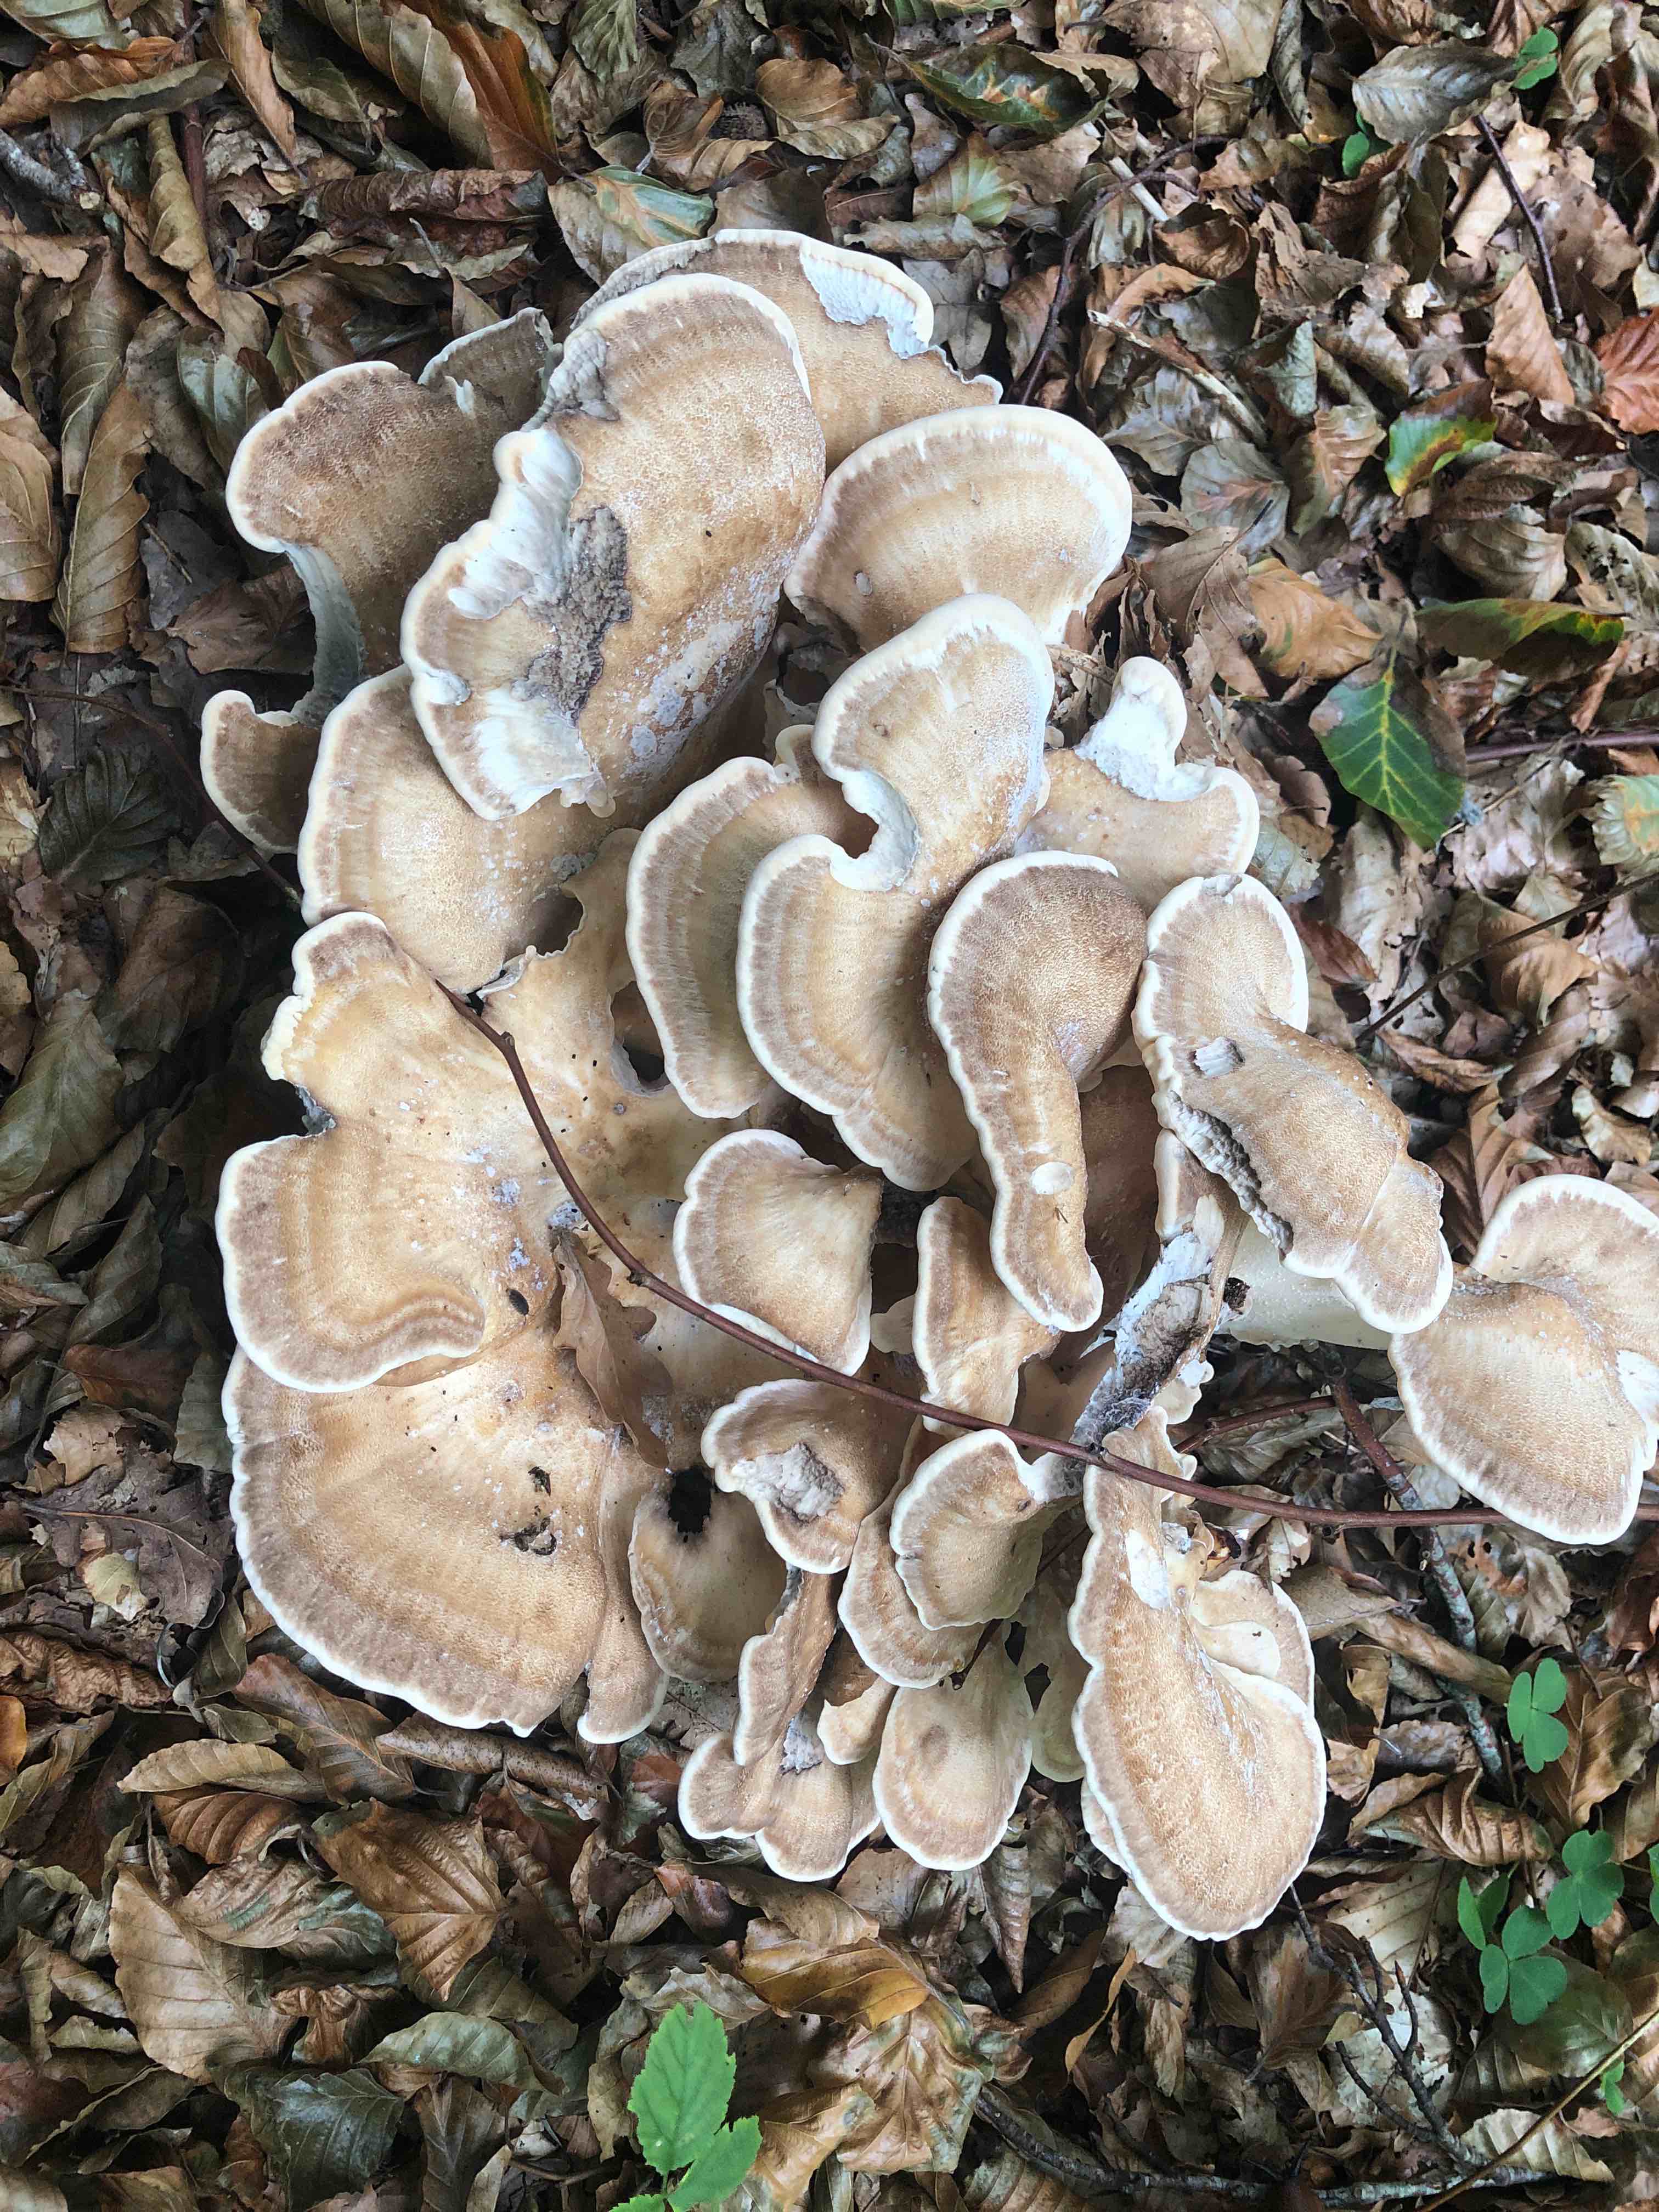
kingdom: Fungi
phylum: Basidiomycota
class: Agaricomycetes
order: Polyporales
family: Meripilaceae
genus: Meripilus
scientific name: Meripilus giganteus
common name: kæmpeporesvamp
